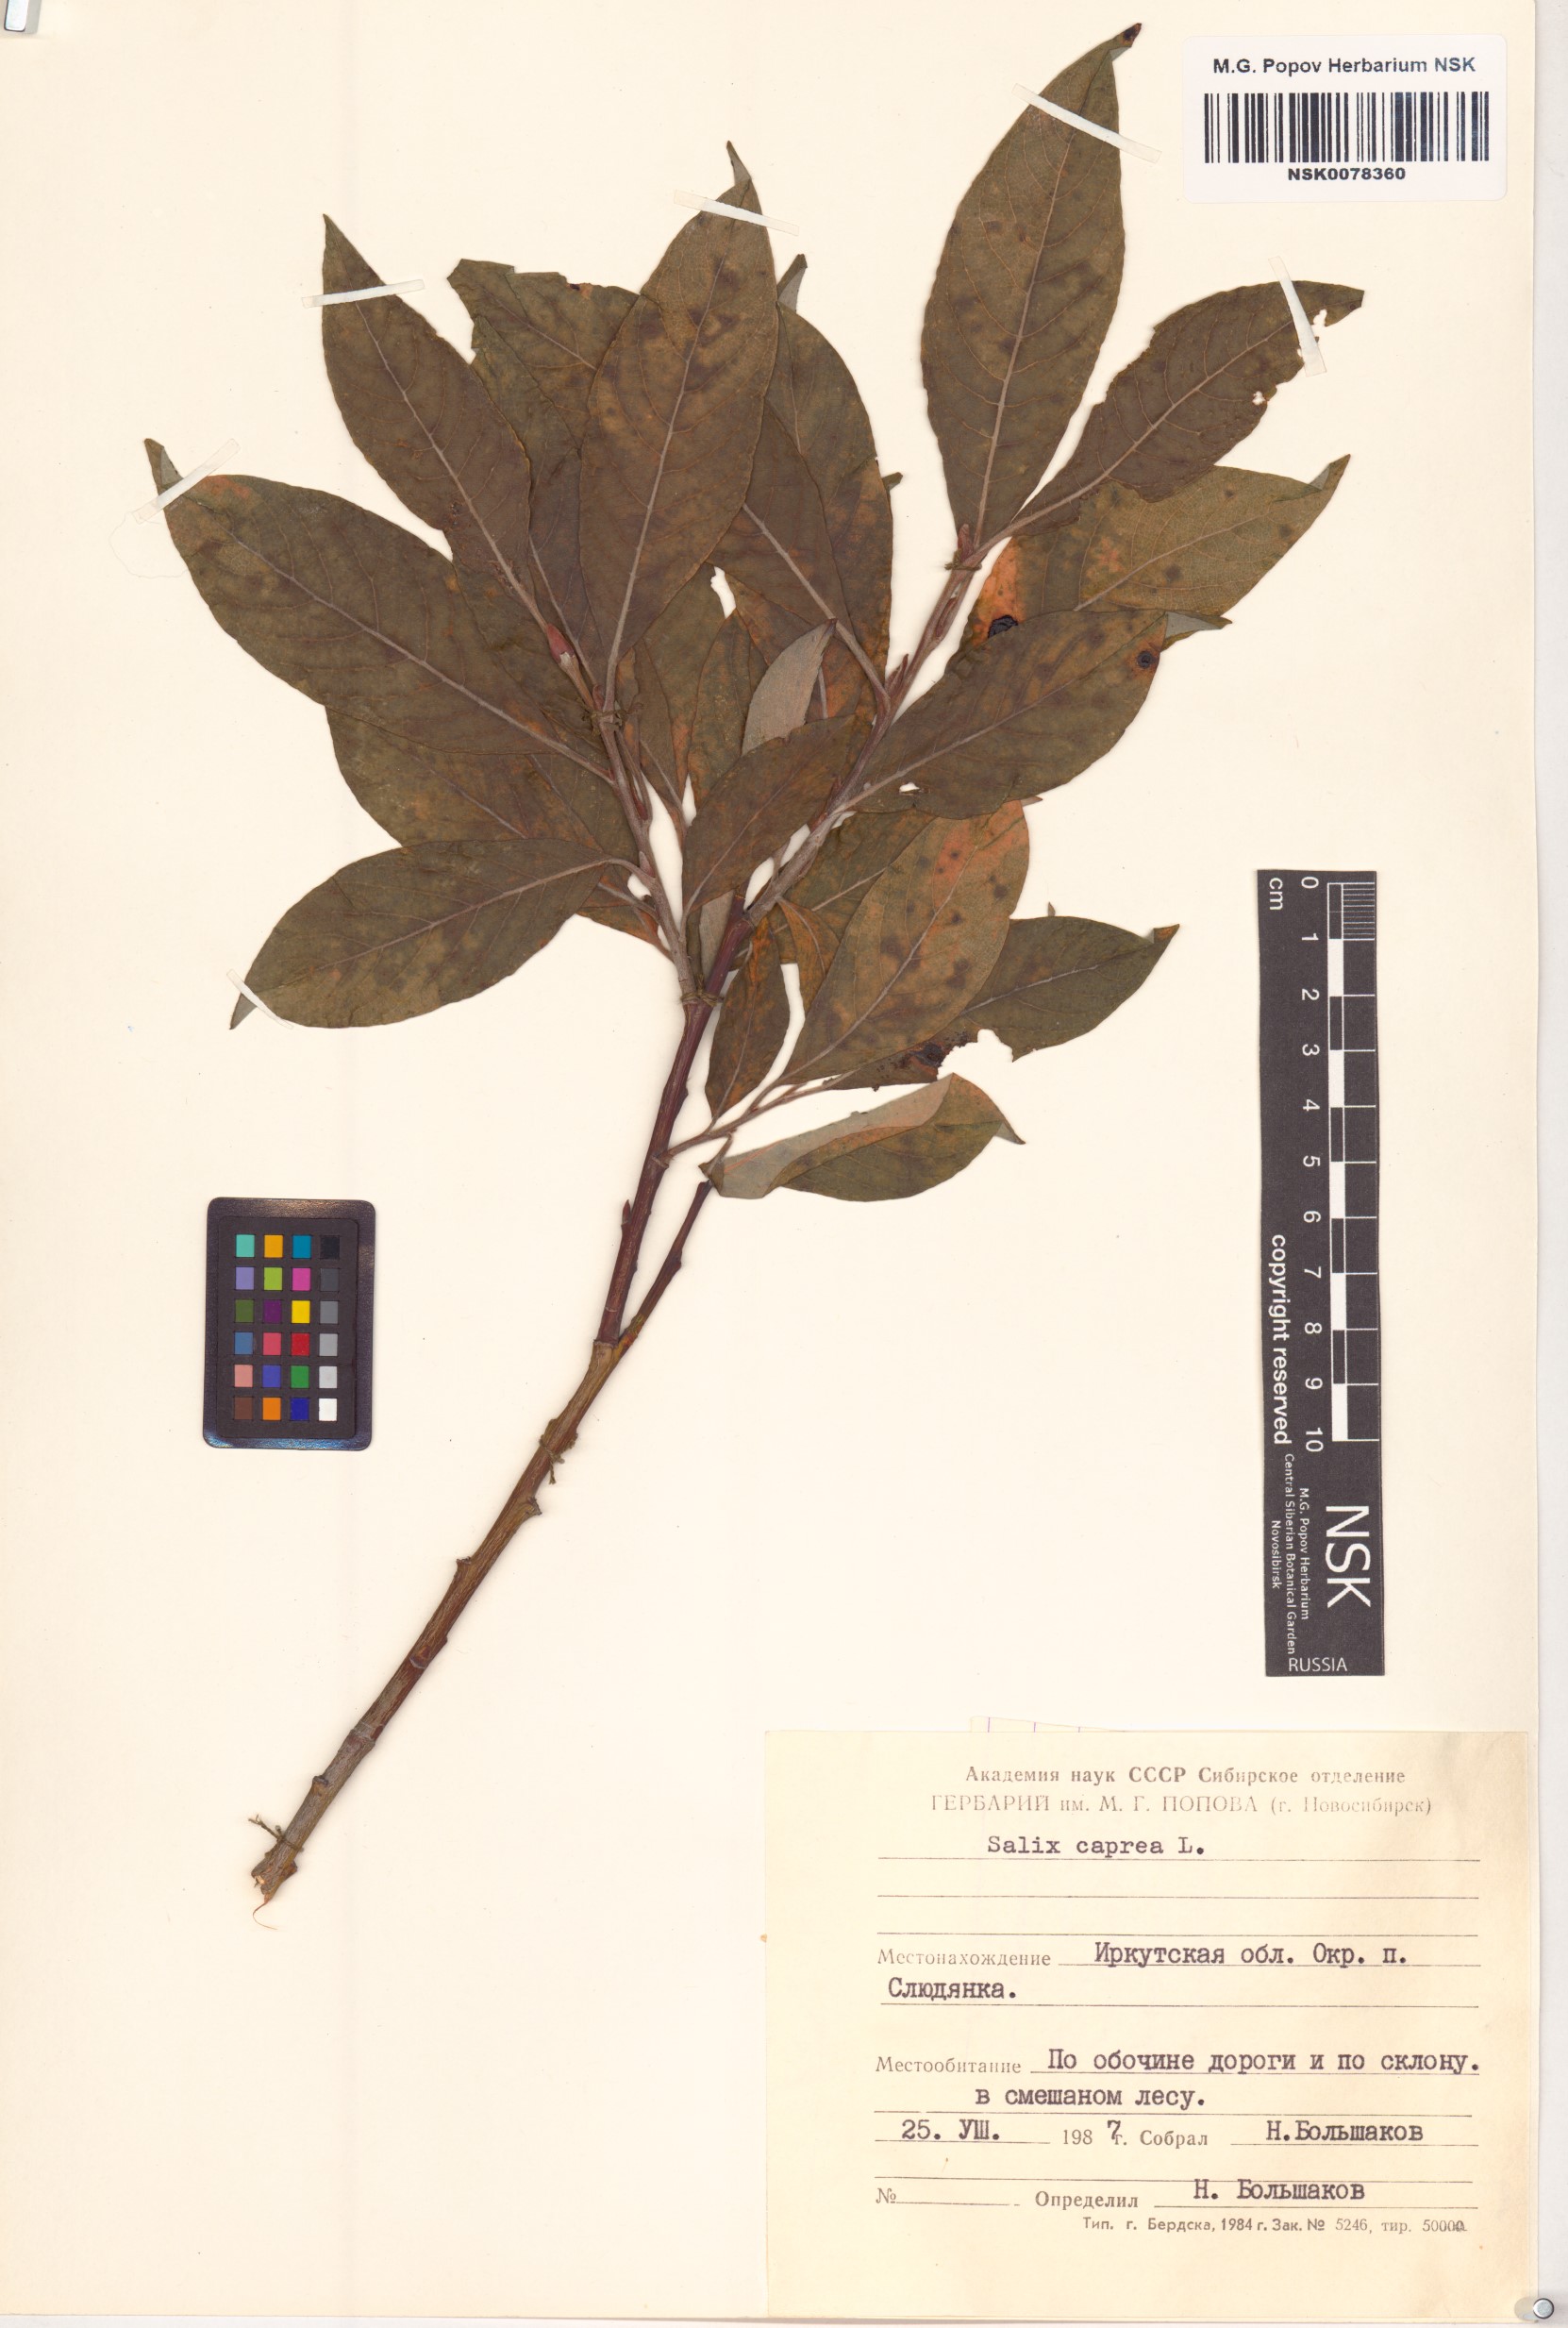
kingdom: Plantae
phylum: Tracheophyta
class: Magnoliopsida
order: Malpighiales
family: Salicaceae
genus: Salix
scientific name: Salix caprea
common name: Goat willow
